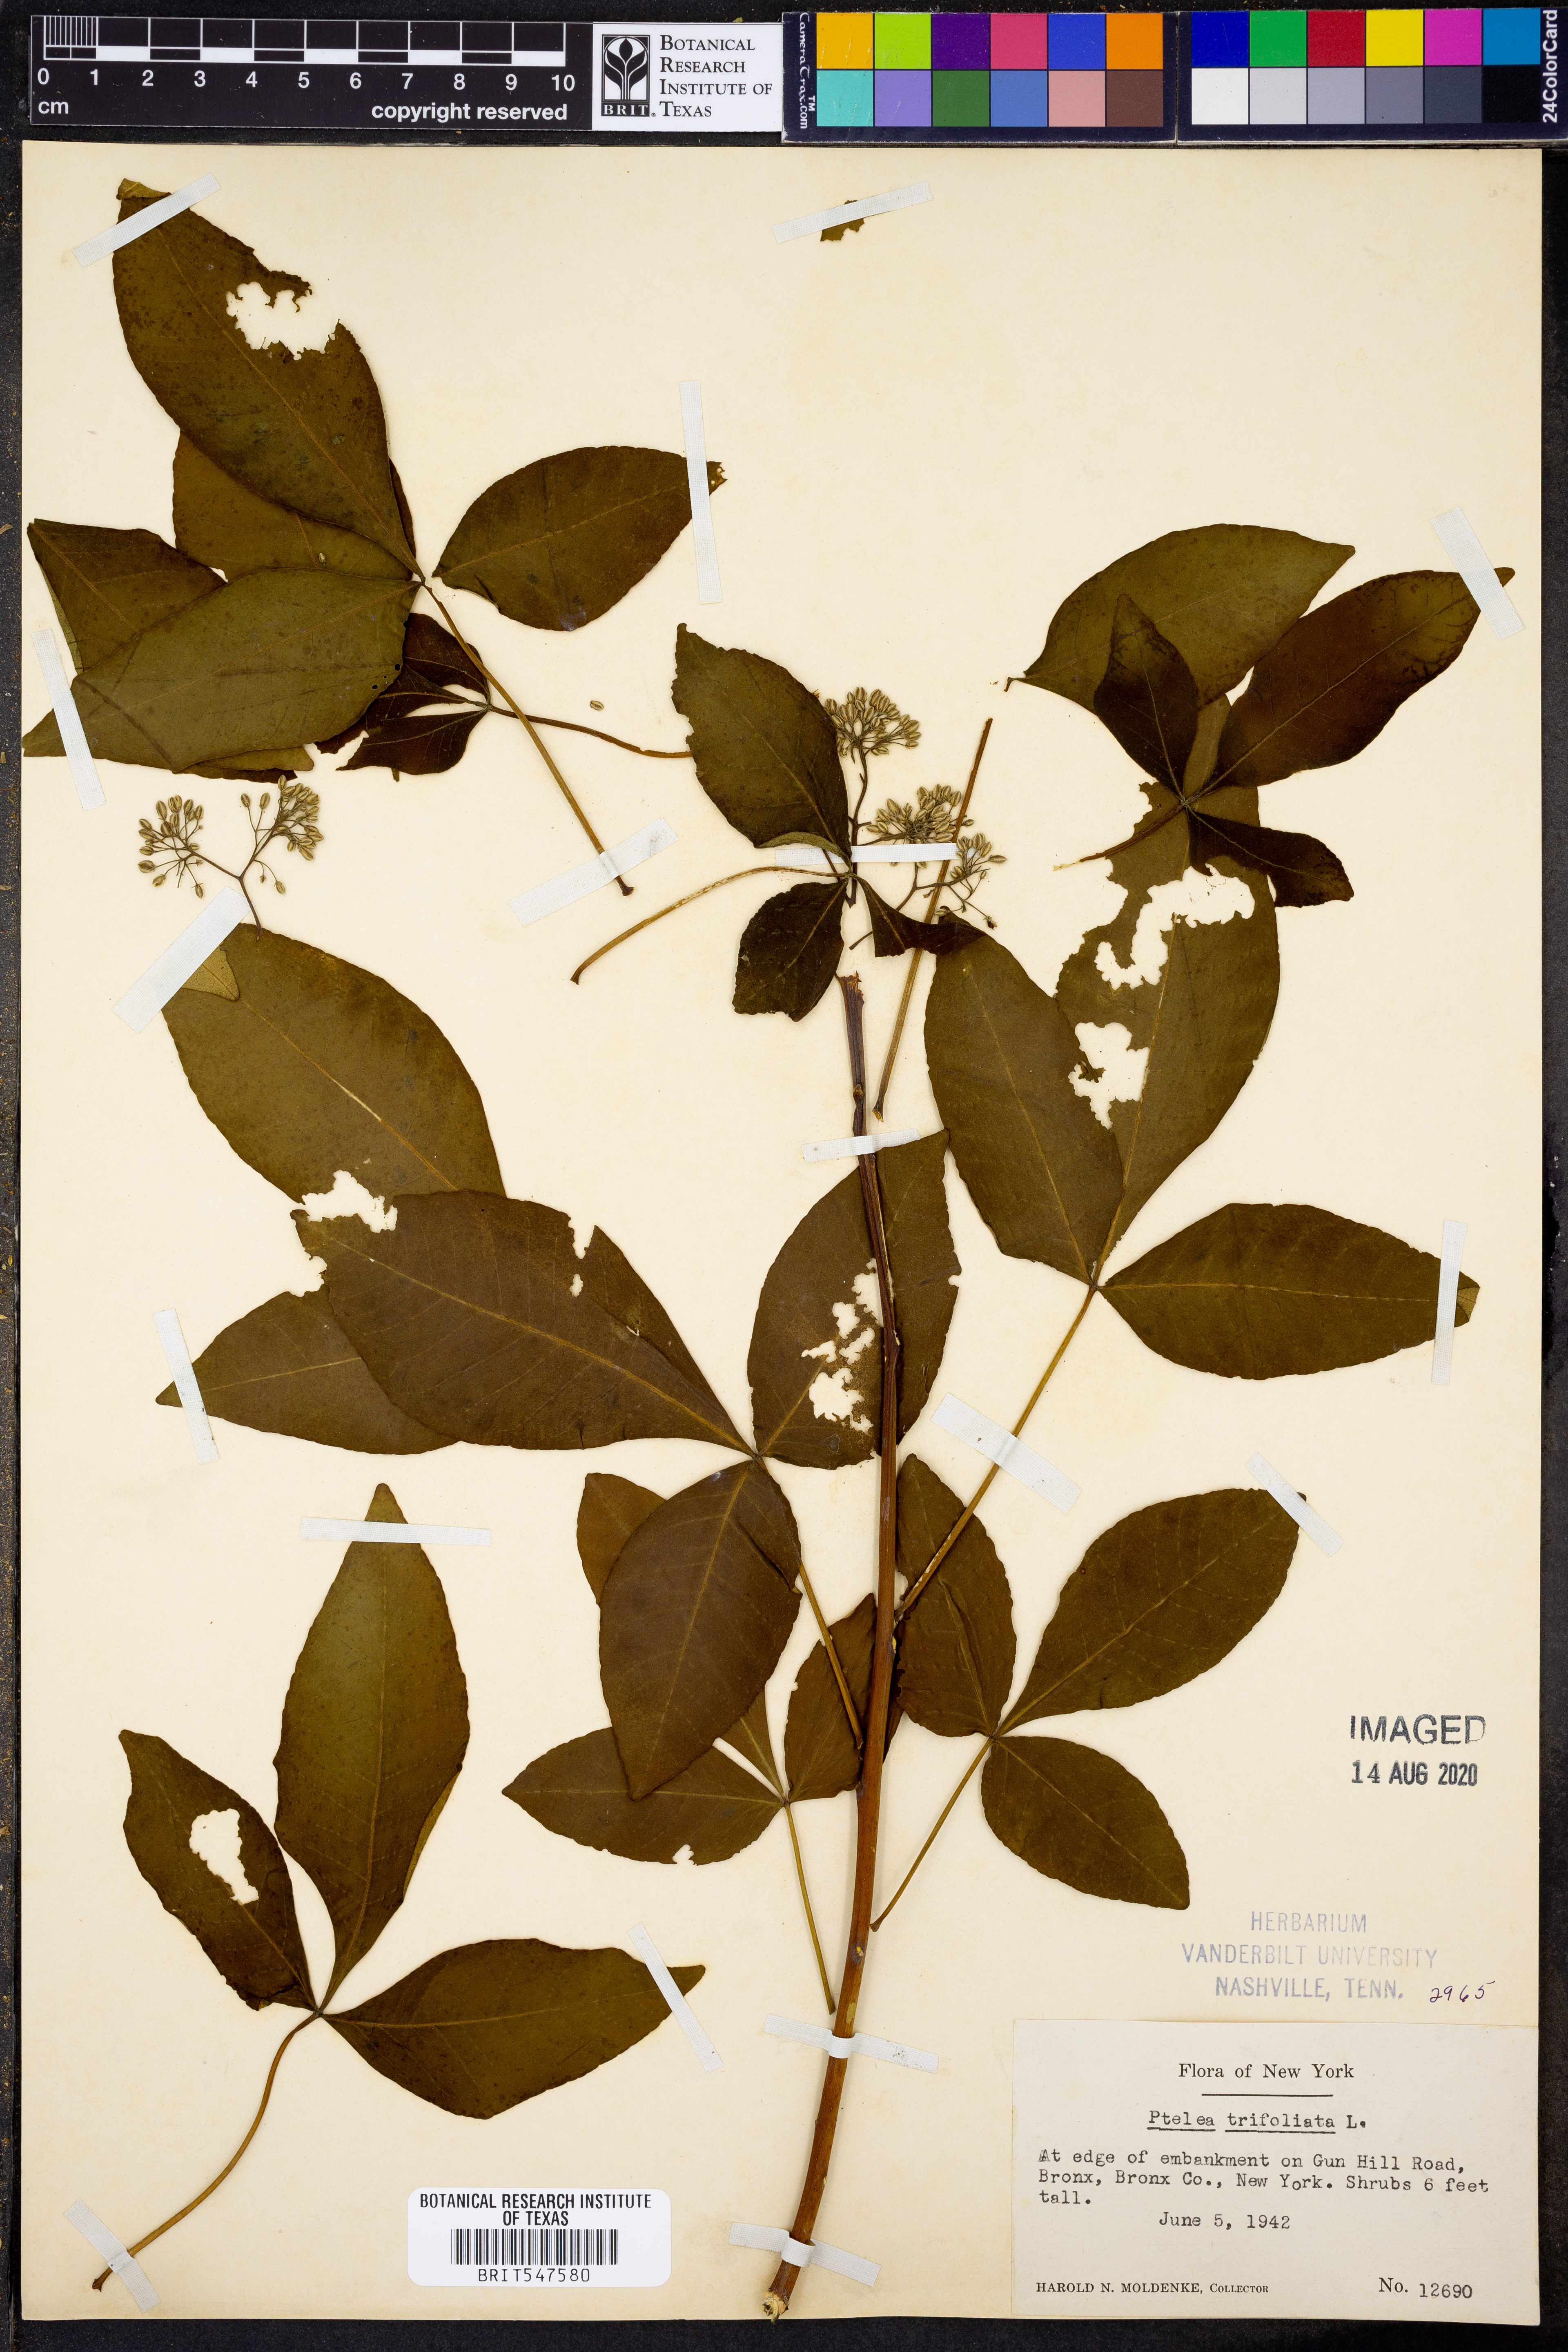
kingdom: Plantae
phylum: Tracheophyta
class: Magnoliopsida
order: Sapindales
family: Rutaceae
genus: Ptelea
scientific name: Ptelea trifoliata
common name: Common hop-tree
